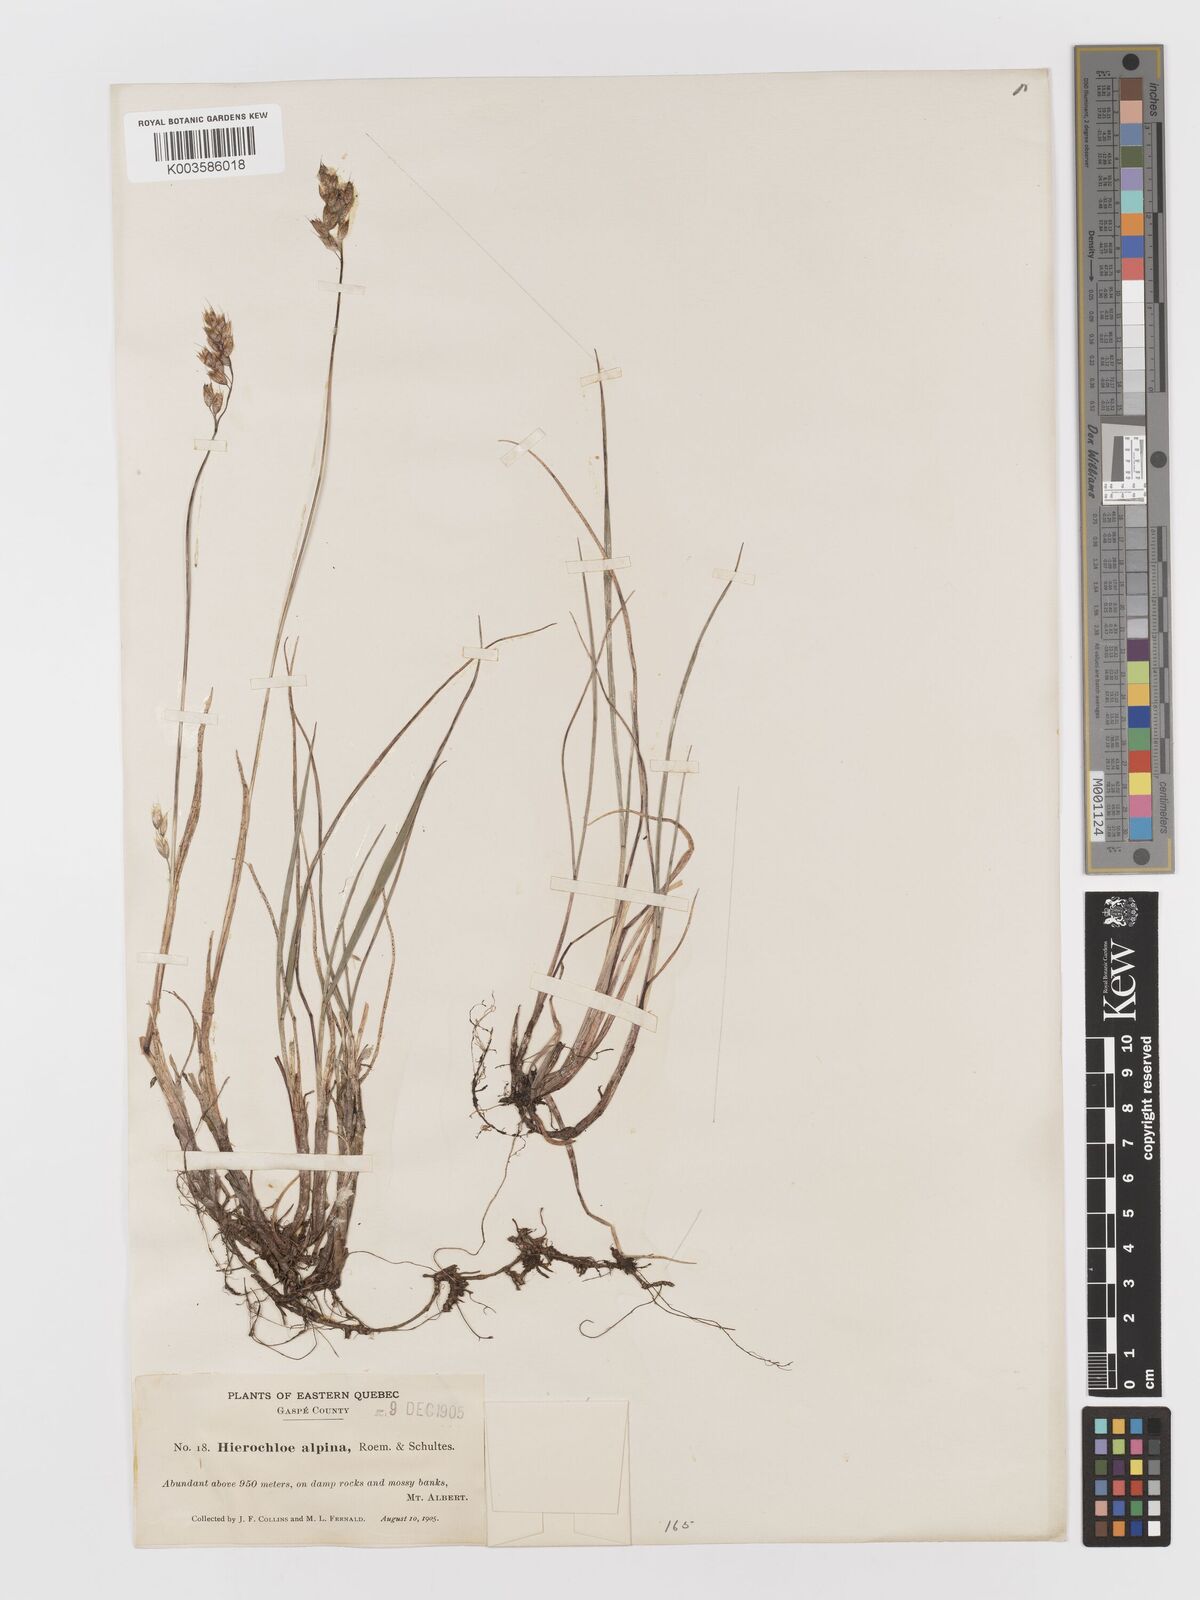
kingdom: Plantae
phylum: Tracheophyta
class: Liliopsida
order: Poales
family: Poaceae
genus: Anthoxanthum
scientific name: Anthoxanthum monticola
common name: Alpine sweetgrass
